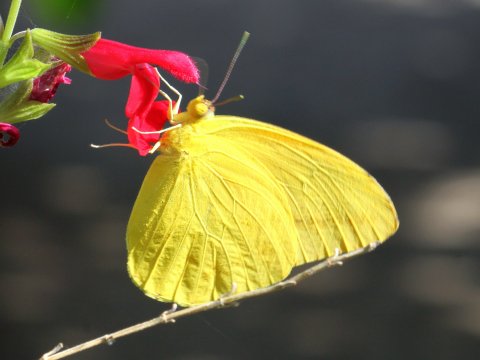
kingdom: Animalia
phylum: Arthropoda
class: Insecta
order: Lepidoptera
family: Pieridae
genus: Phoebis
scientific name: Phoebis agarithe
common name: Large Orange Sulphur
